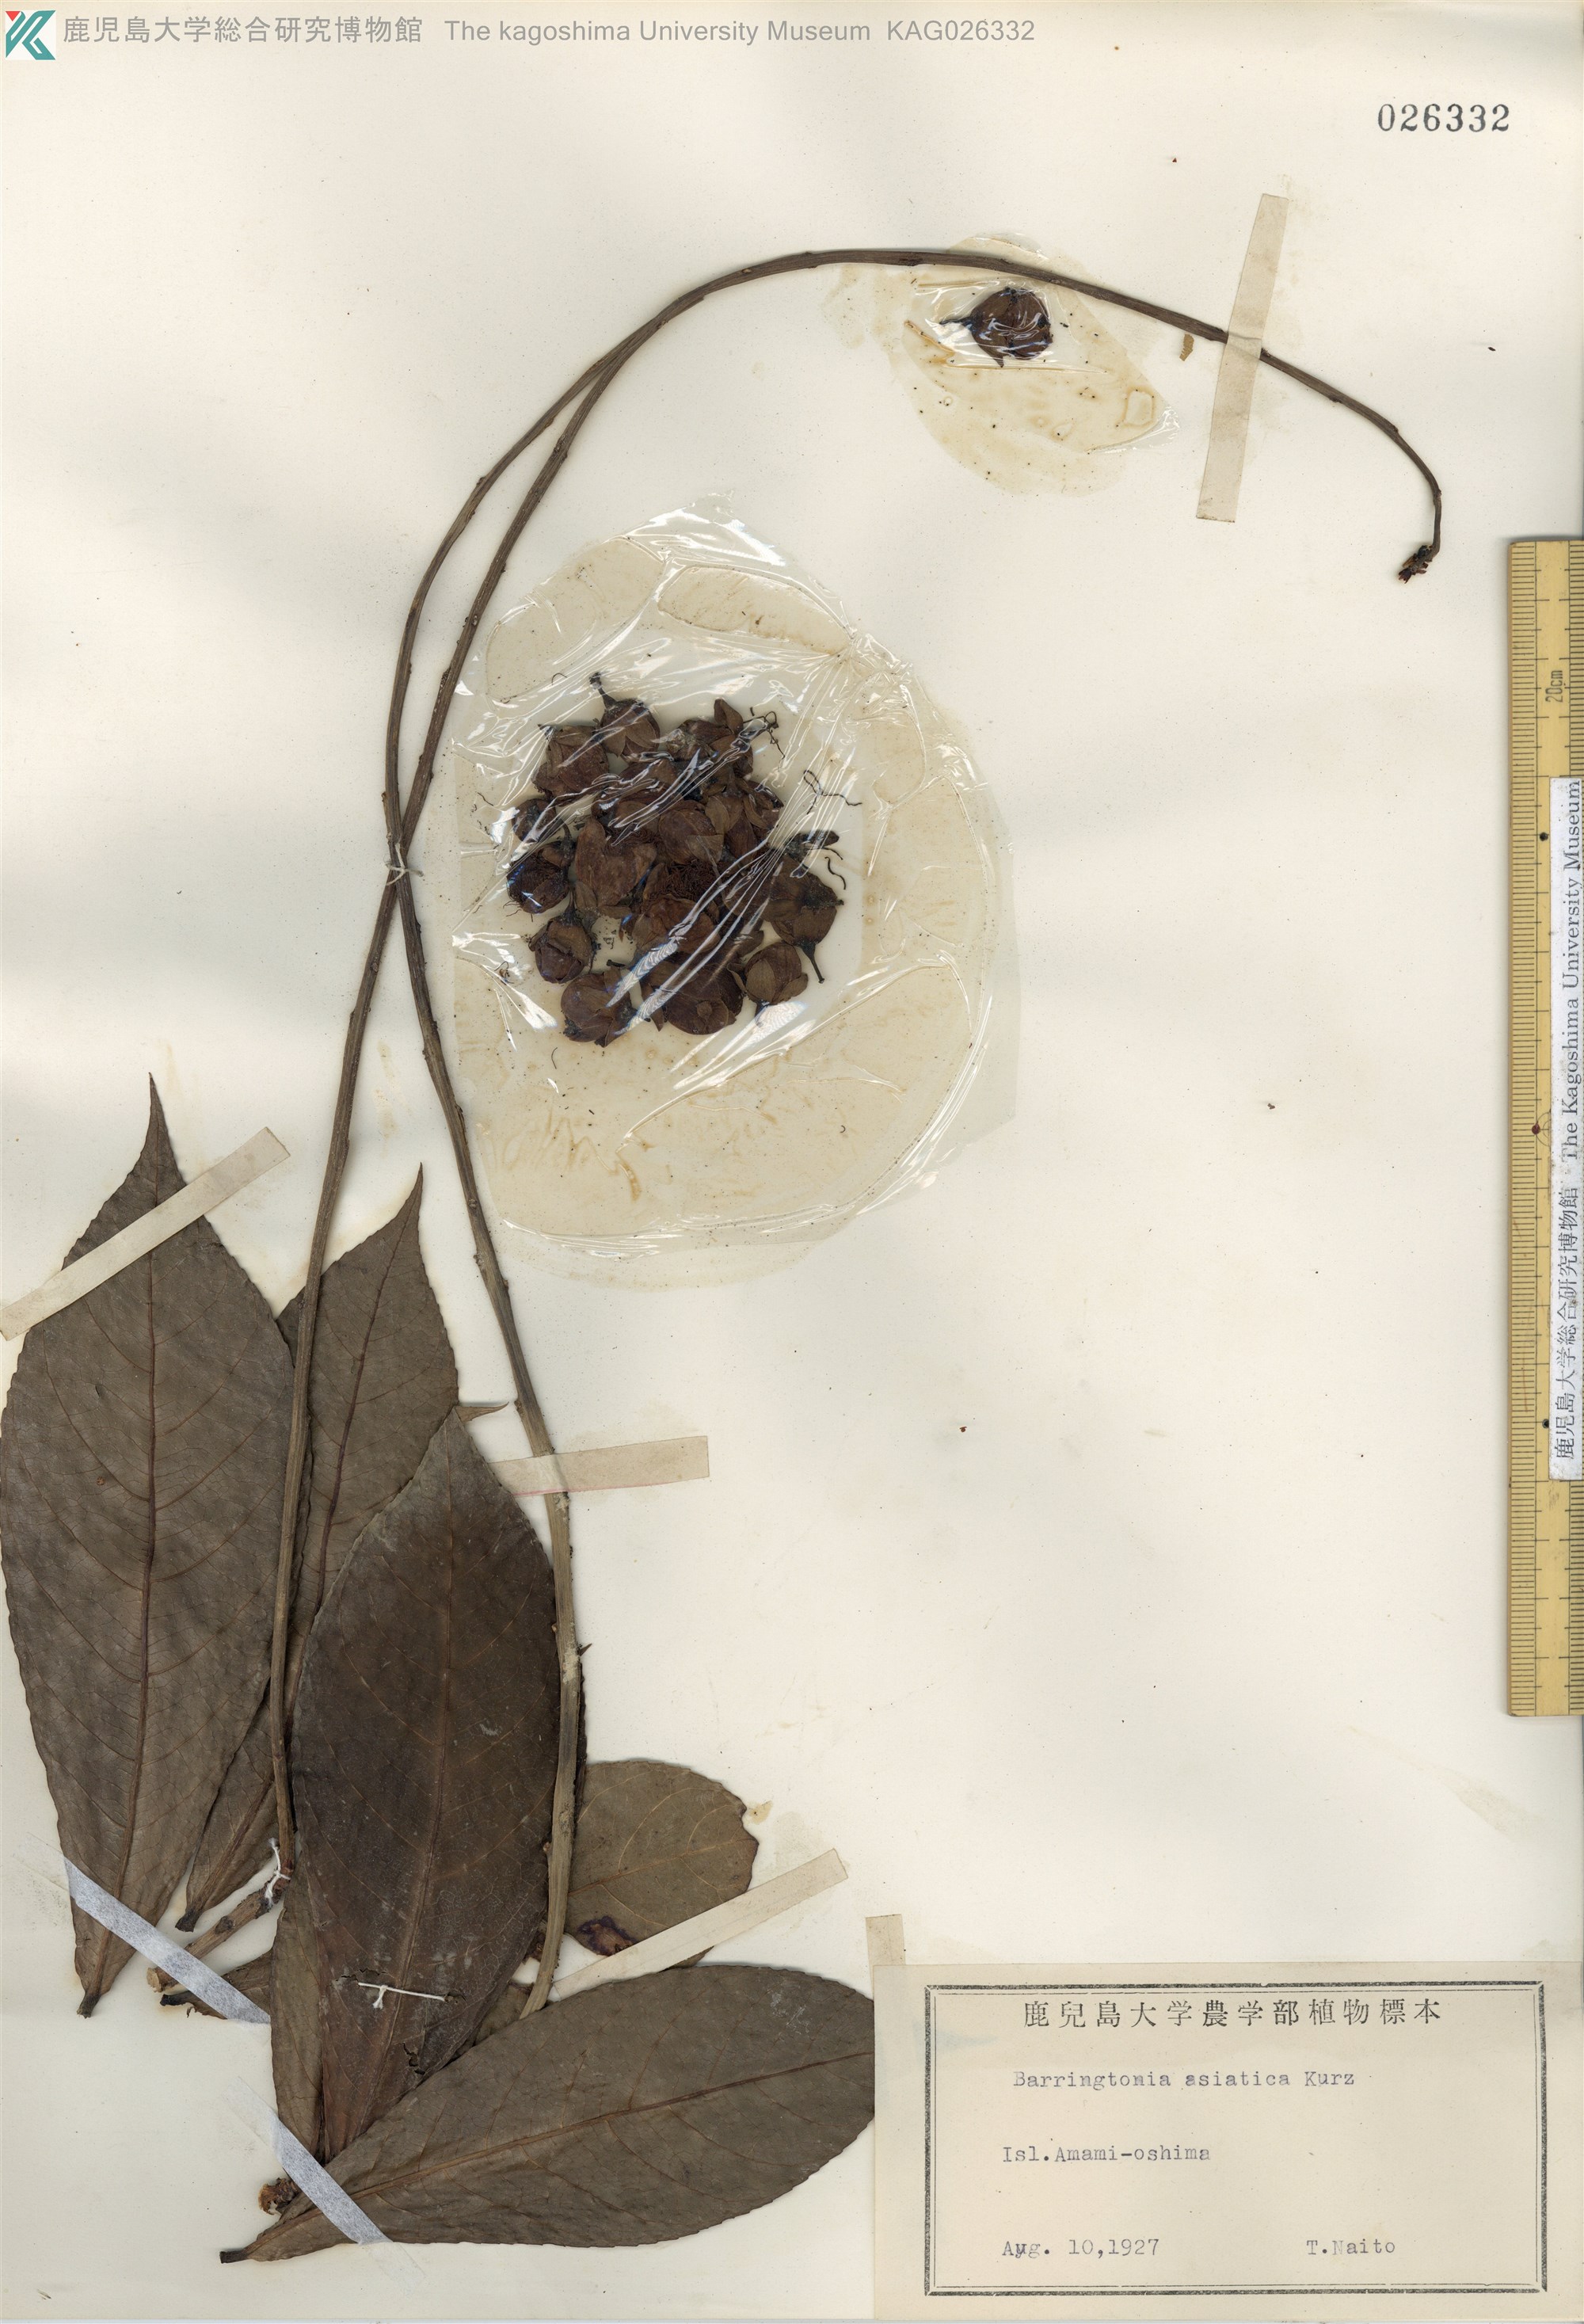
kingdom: Plantae
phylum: Tracheophyta
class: Magnoliopsida
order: Ericales
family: Lecythidaceae
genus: Barringtonia
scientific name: Barringtonia racemosa
